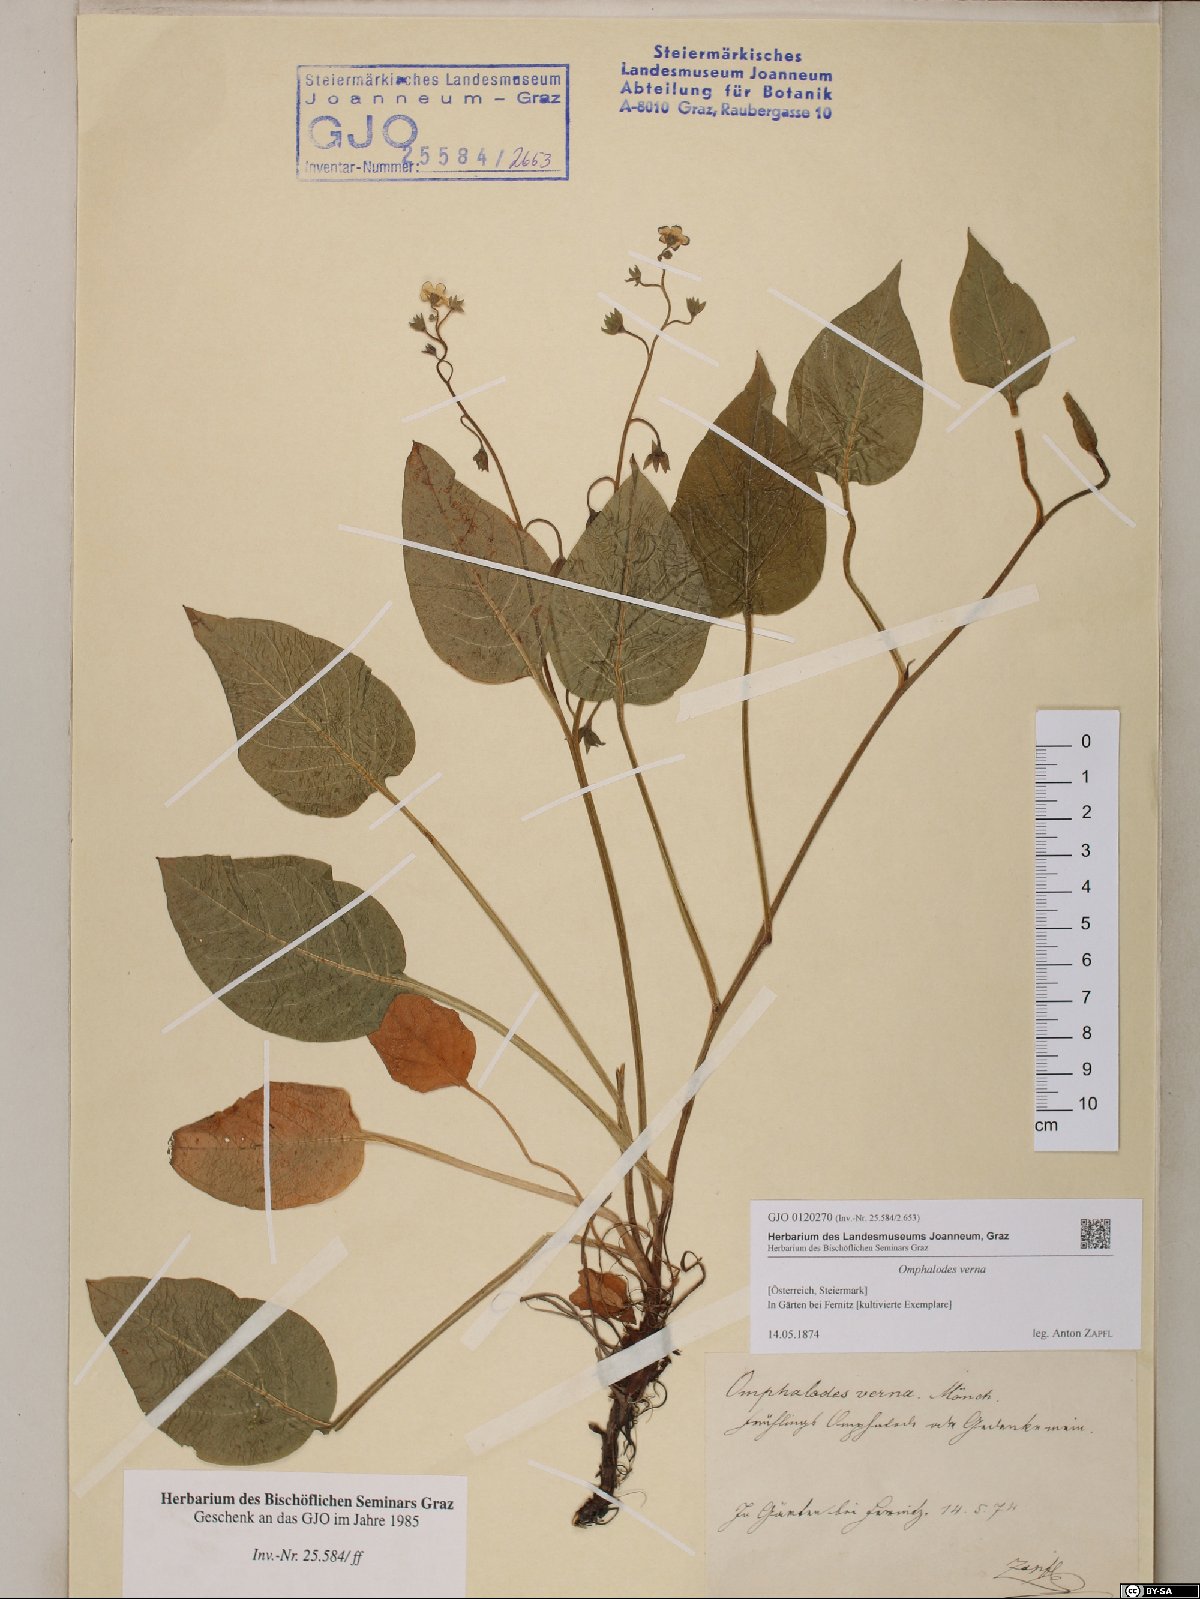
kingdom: Plantae
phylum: Tracheophyta
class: Magnoliopsida
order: Boraginales
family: Boraginaceae
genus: Omphalodes
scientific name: Omphalodes verna
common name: Blue-eyed-mary
